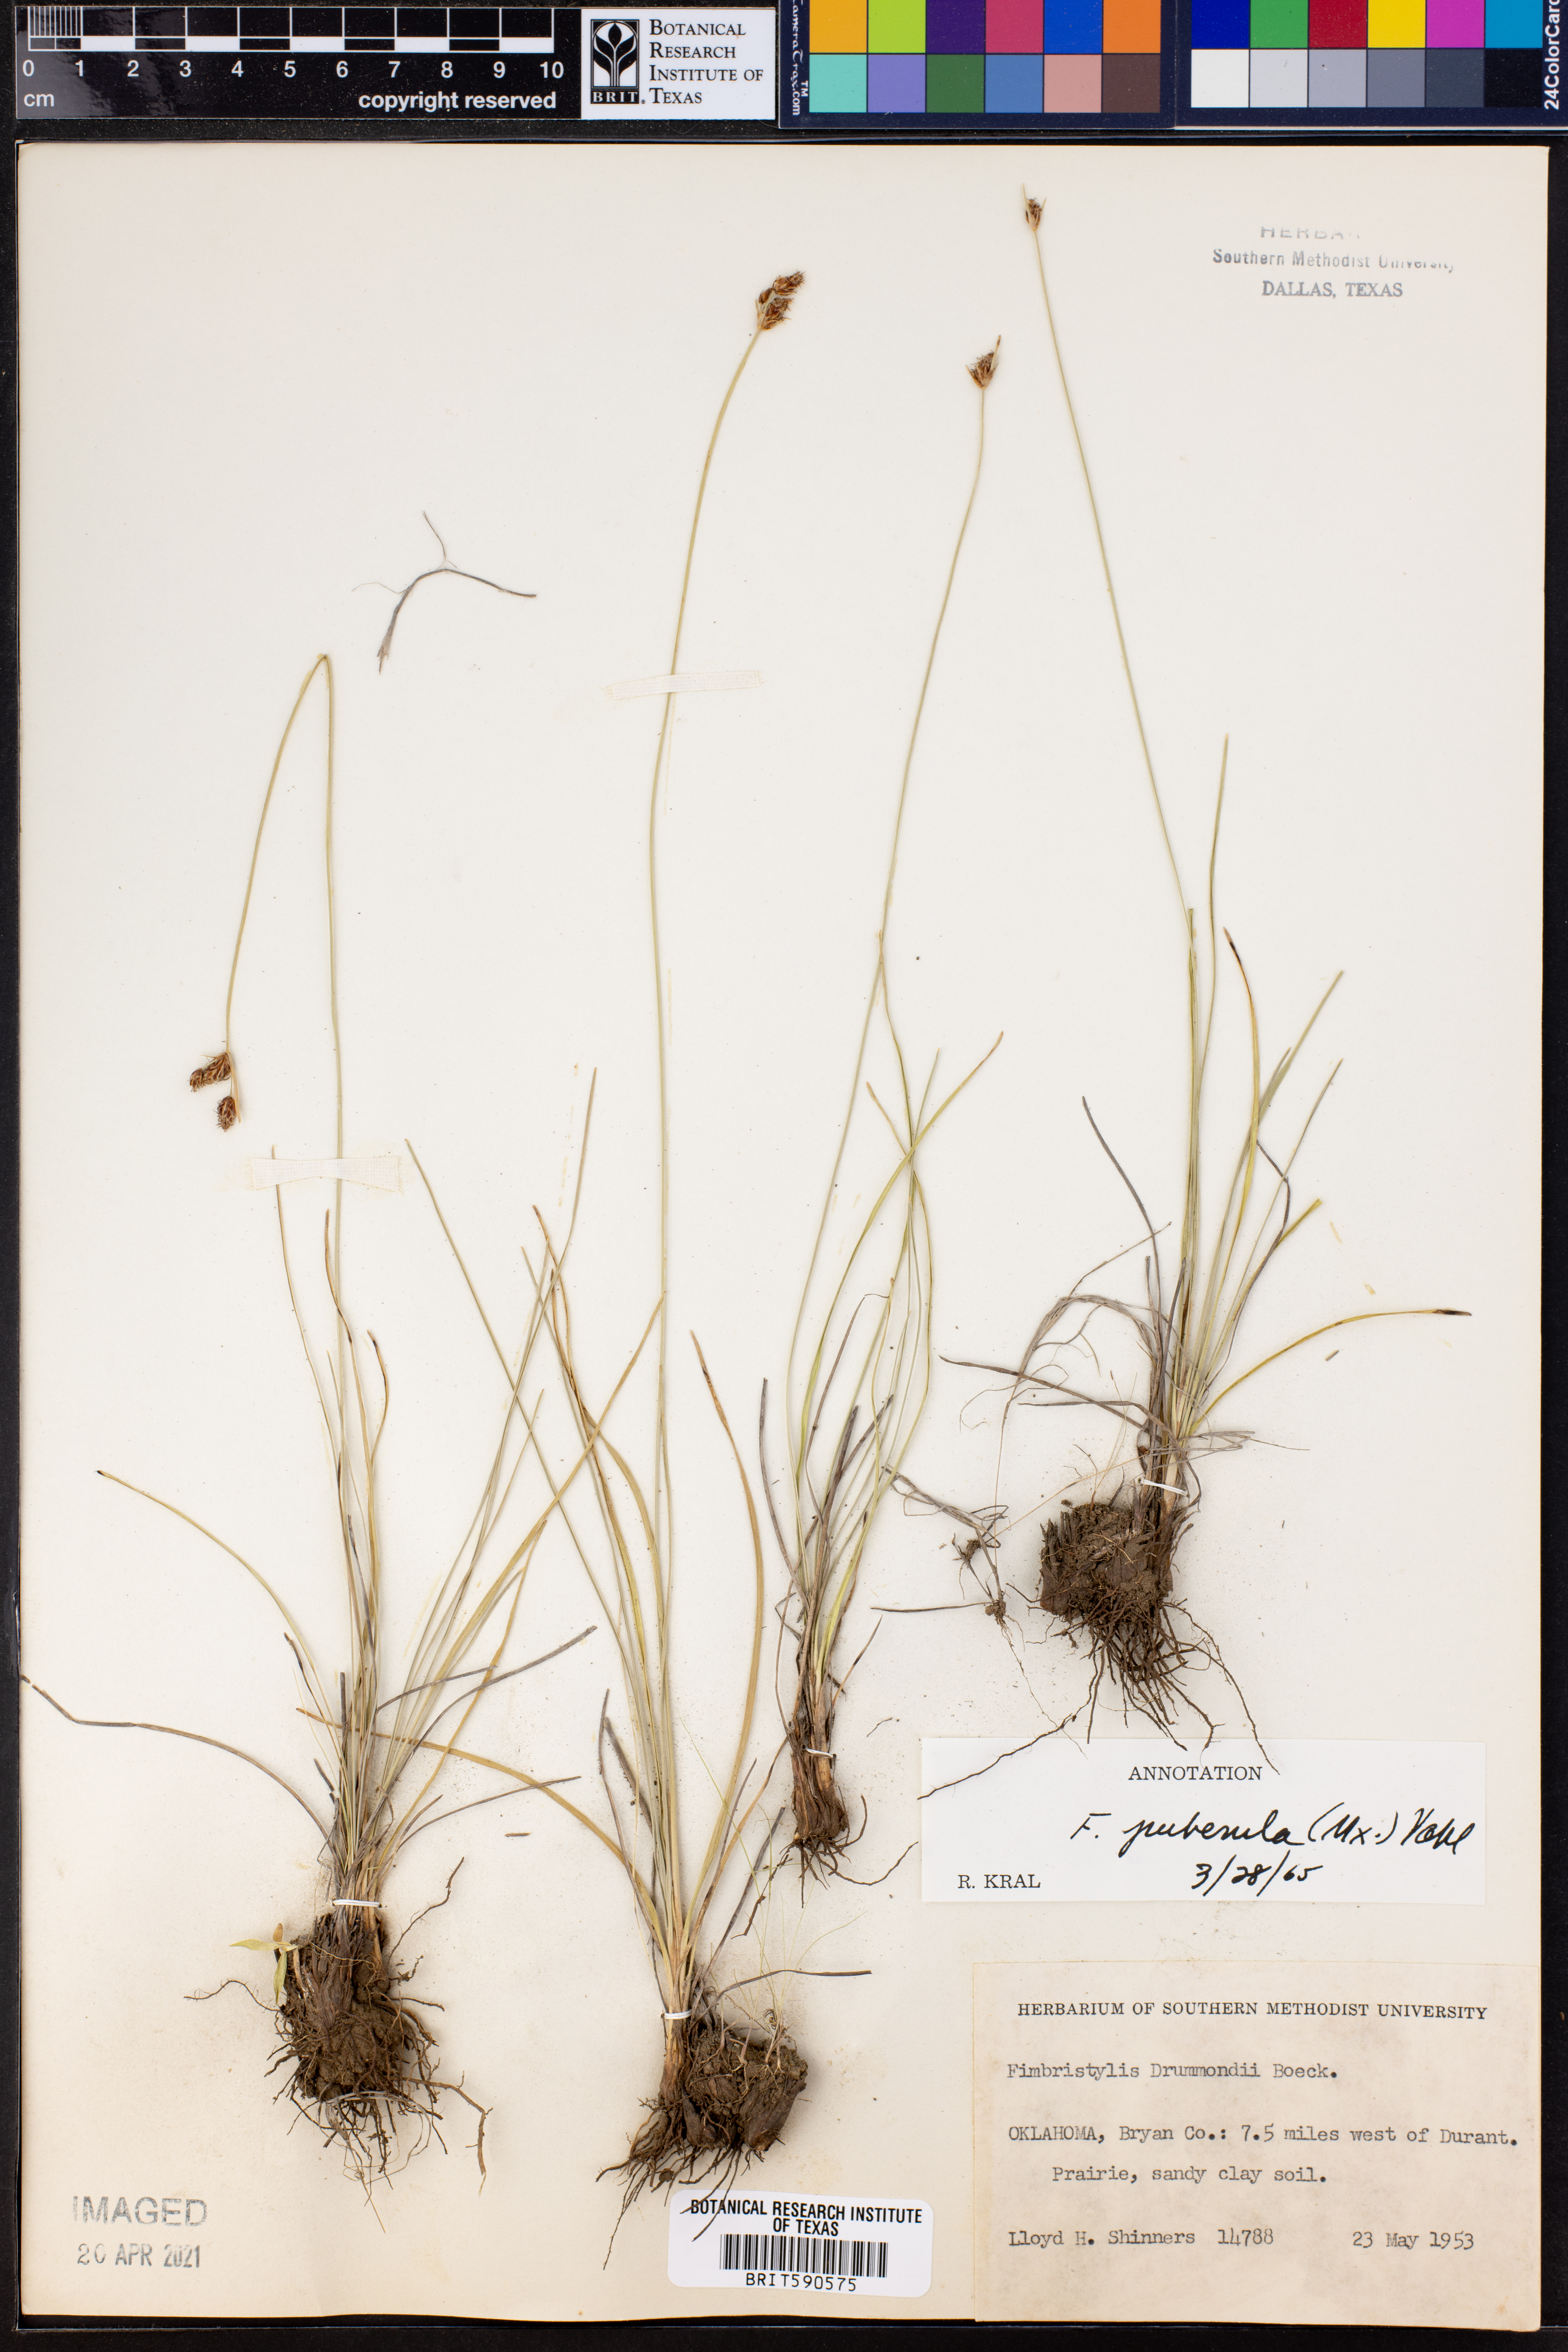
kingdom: Plantae
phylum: Tracheophyta
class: Liliopsida
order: Poales
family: Cyperaceae
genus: Fimbristylis
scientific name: Fimbristylis puberula
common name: Hairy fimbristylis
